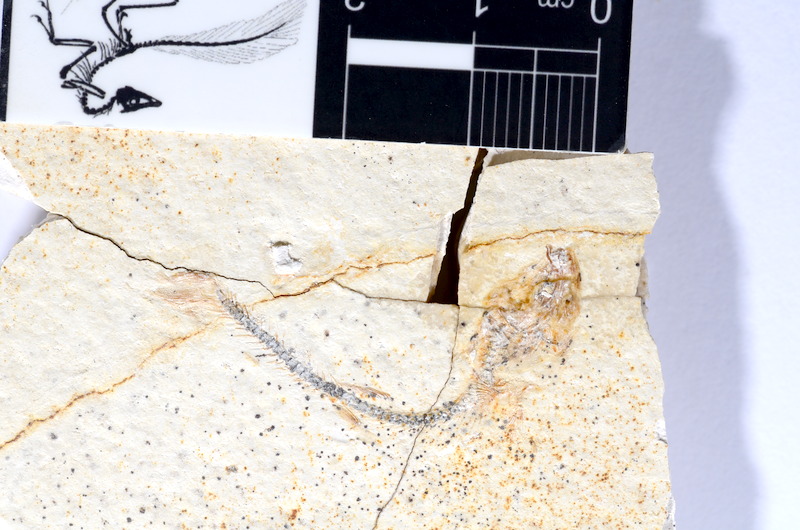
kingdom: Animalia
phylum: Chordata
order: Salmoniformes
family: Orthogonikleithridae
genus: Orthogonikleithrus
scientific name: Orthogonikleithrus hoelli
